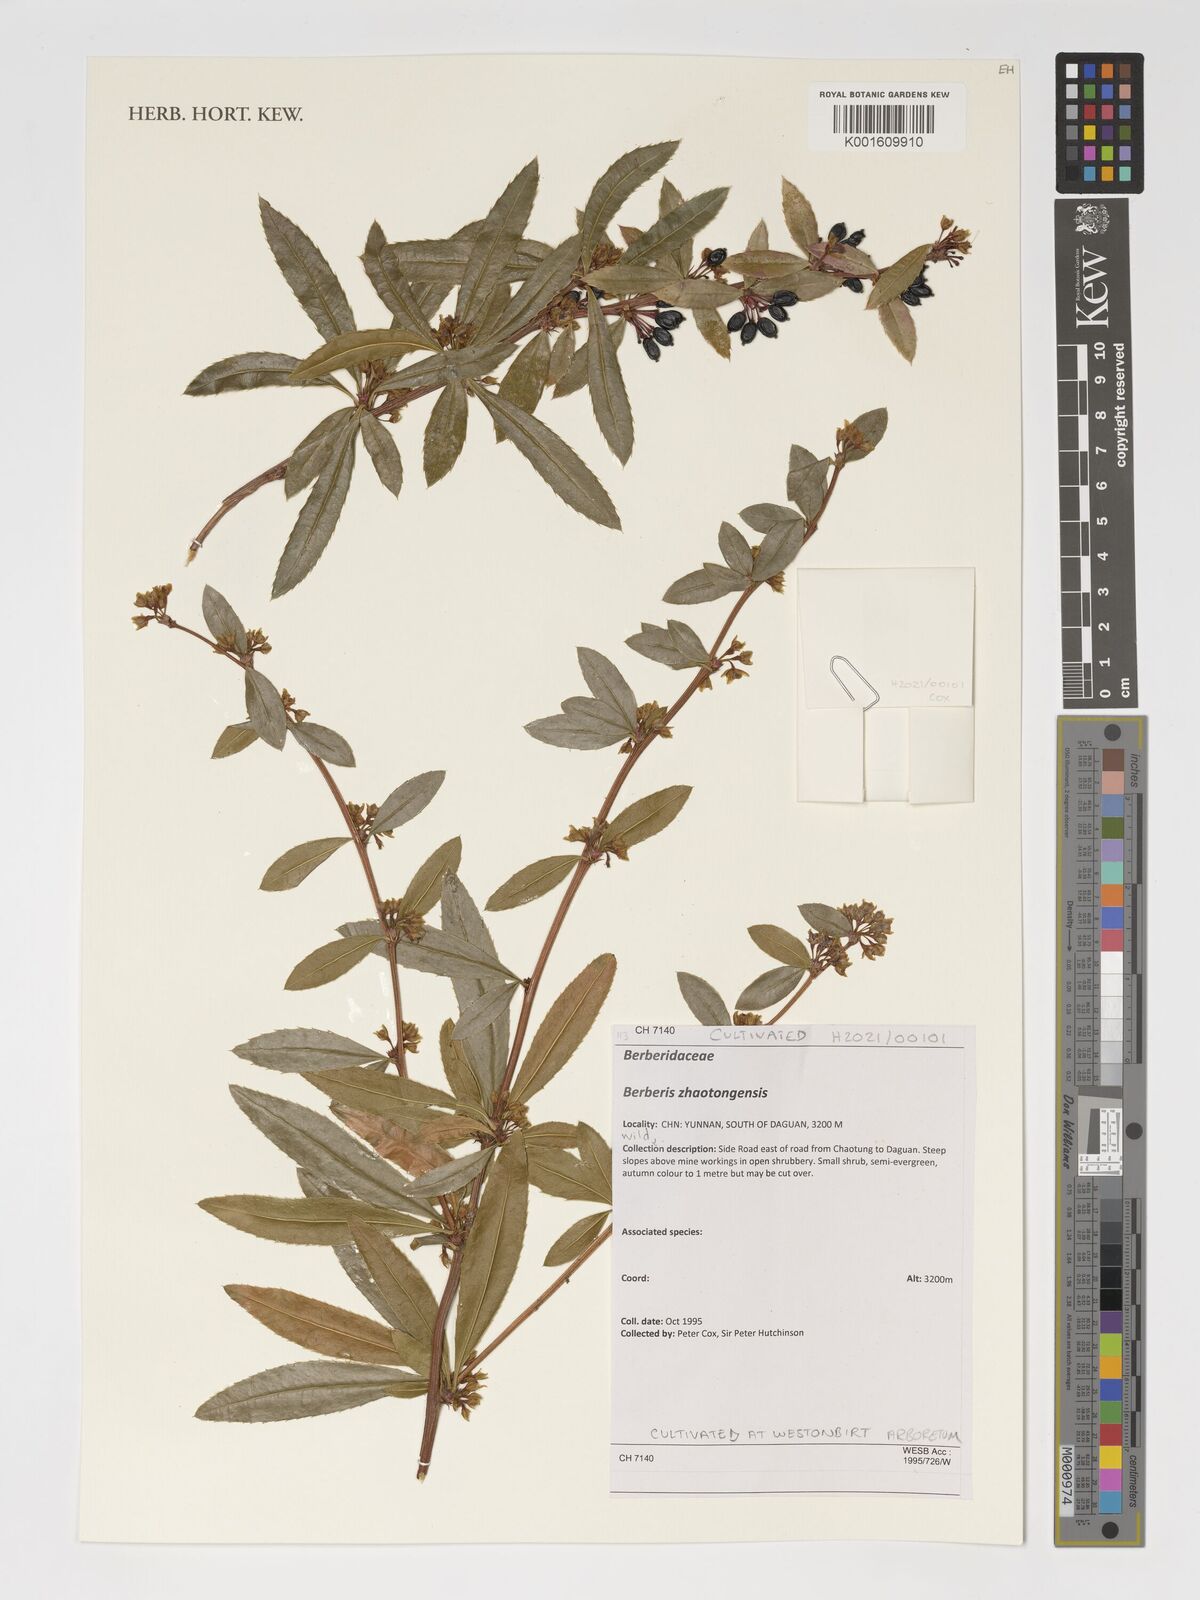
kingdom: Plantae
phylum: Tracheophyta
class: Magnoliopsida
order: Ranunculales
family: Berberidaceae
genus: Berberis
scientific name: Berberis zhaotongensis
